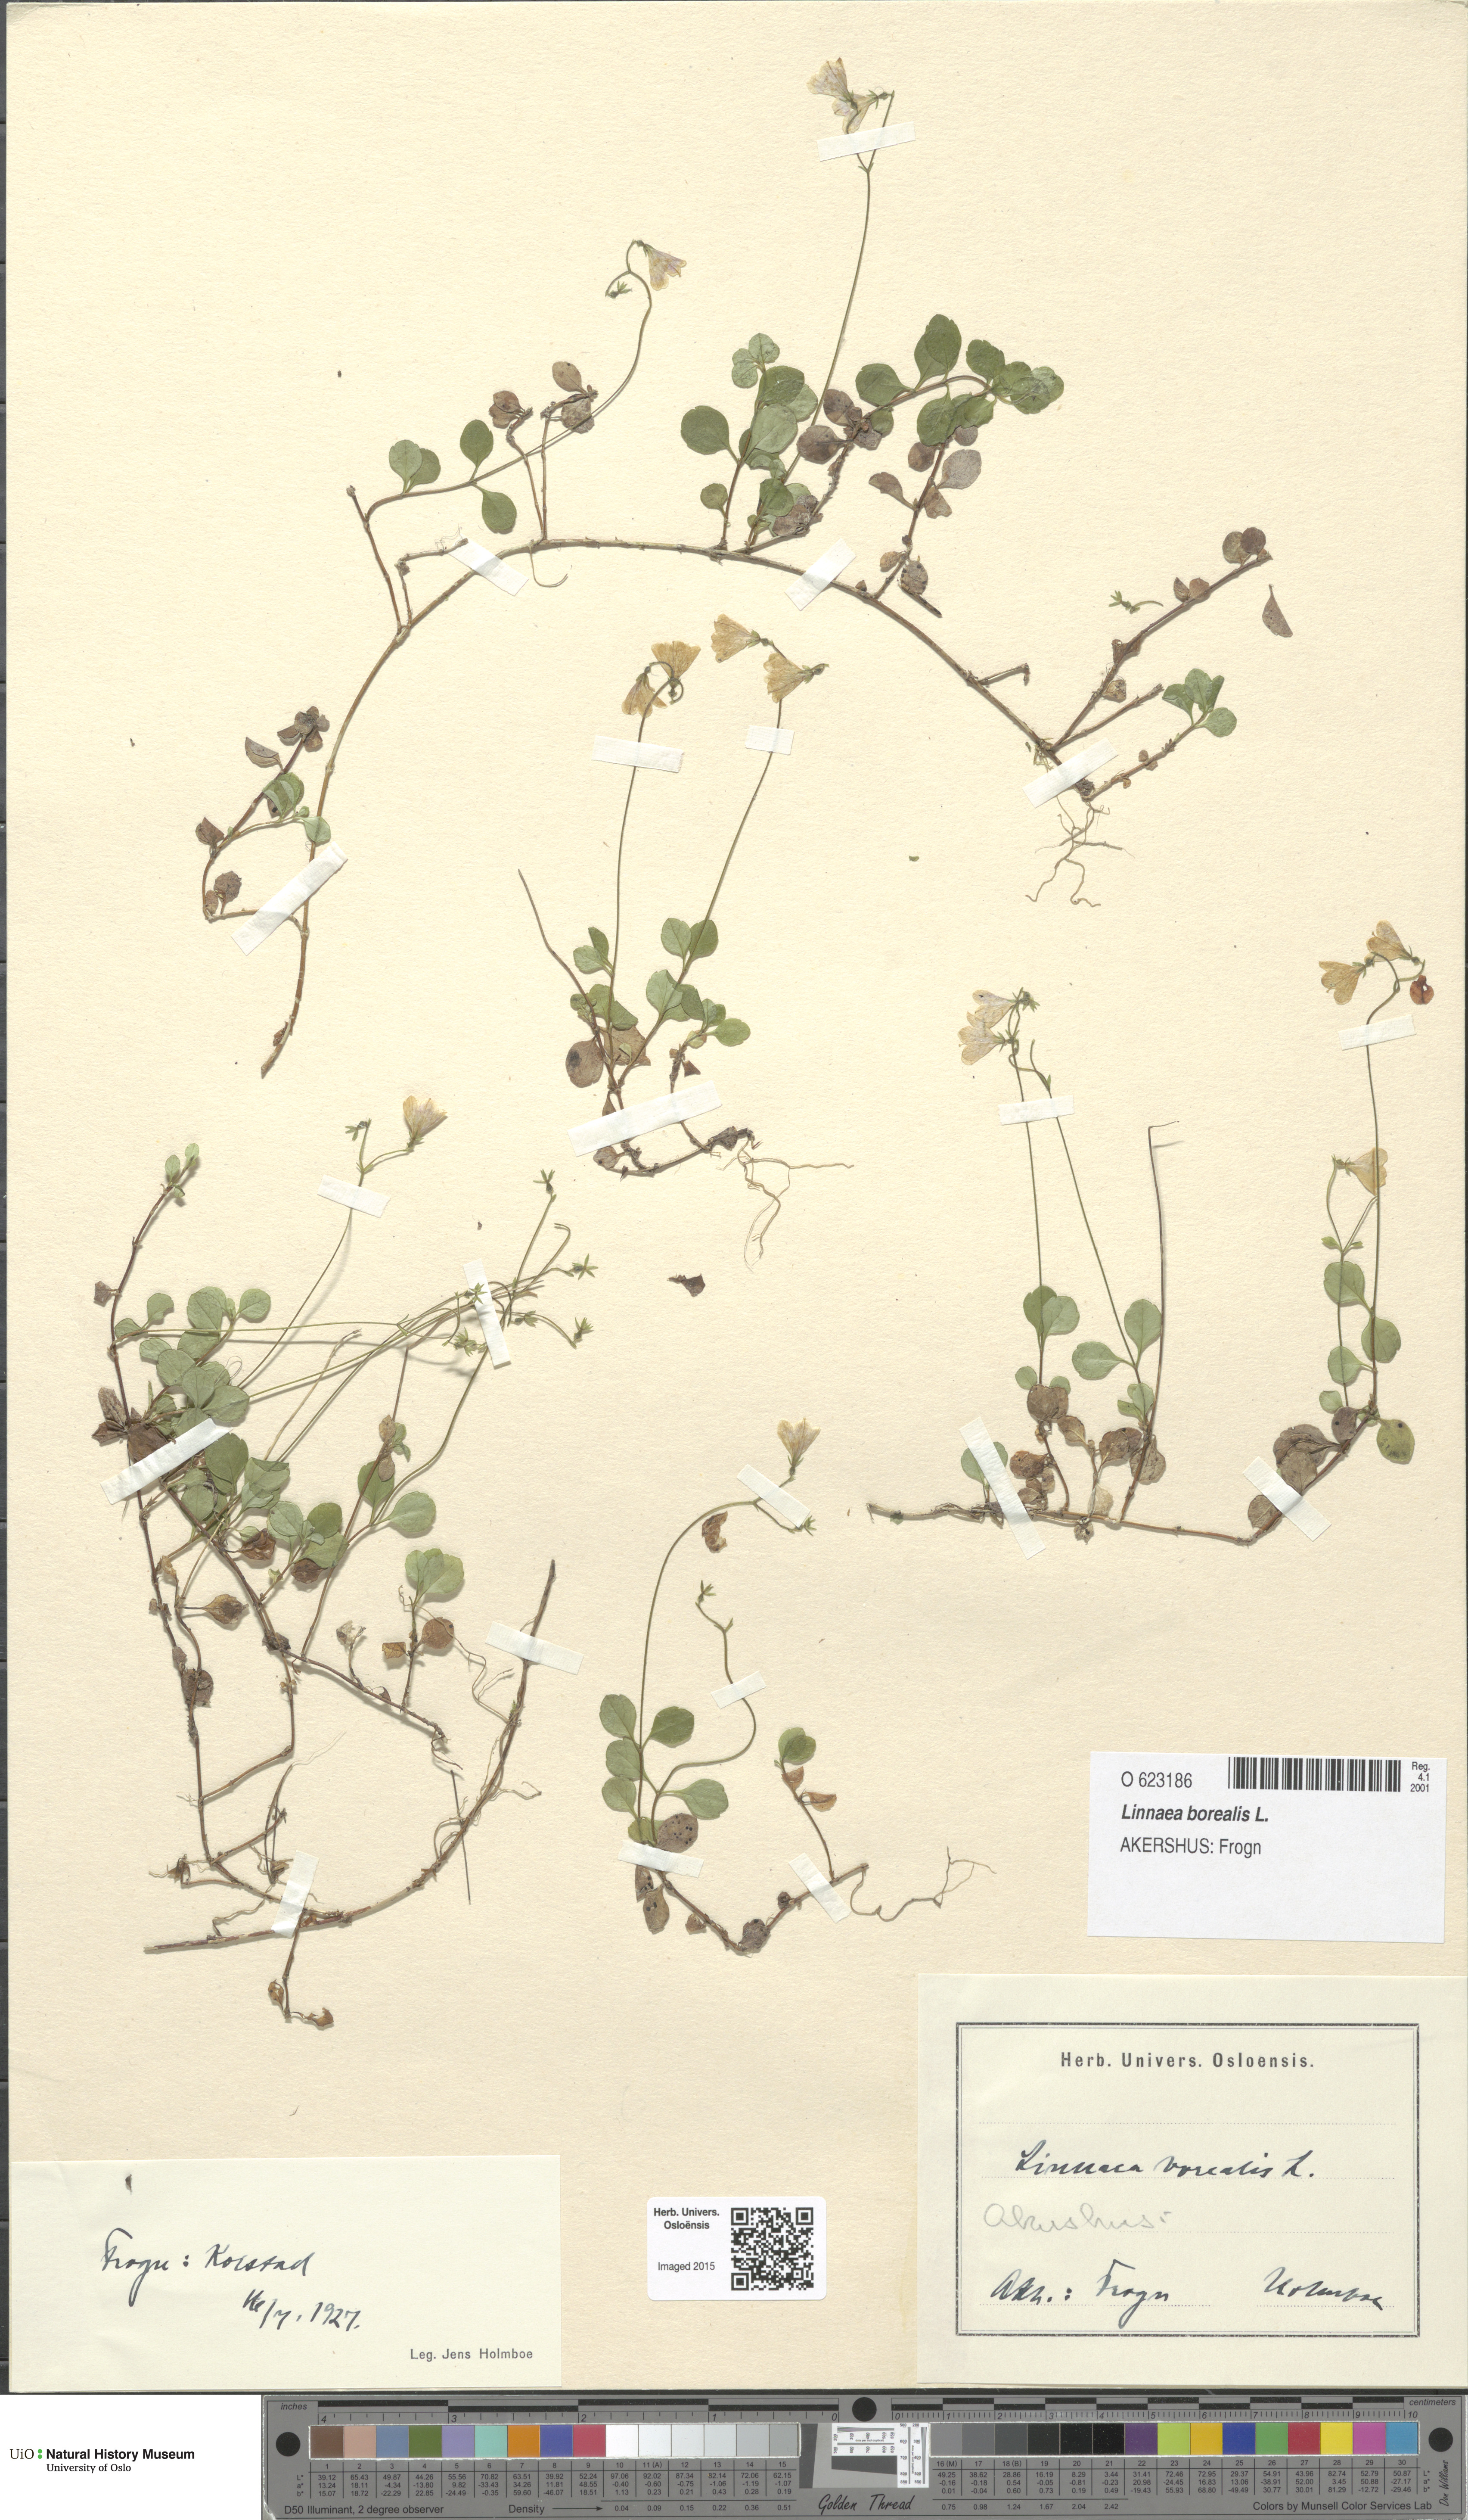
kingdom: Plantae
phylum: Tracheophyta
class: Magnoliopsida
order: Dipsacales
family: Caprifoliaceae
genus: Linnaea
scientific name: Linnaea borealis
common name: Twinflower
